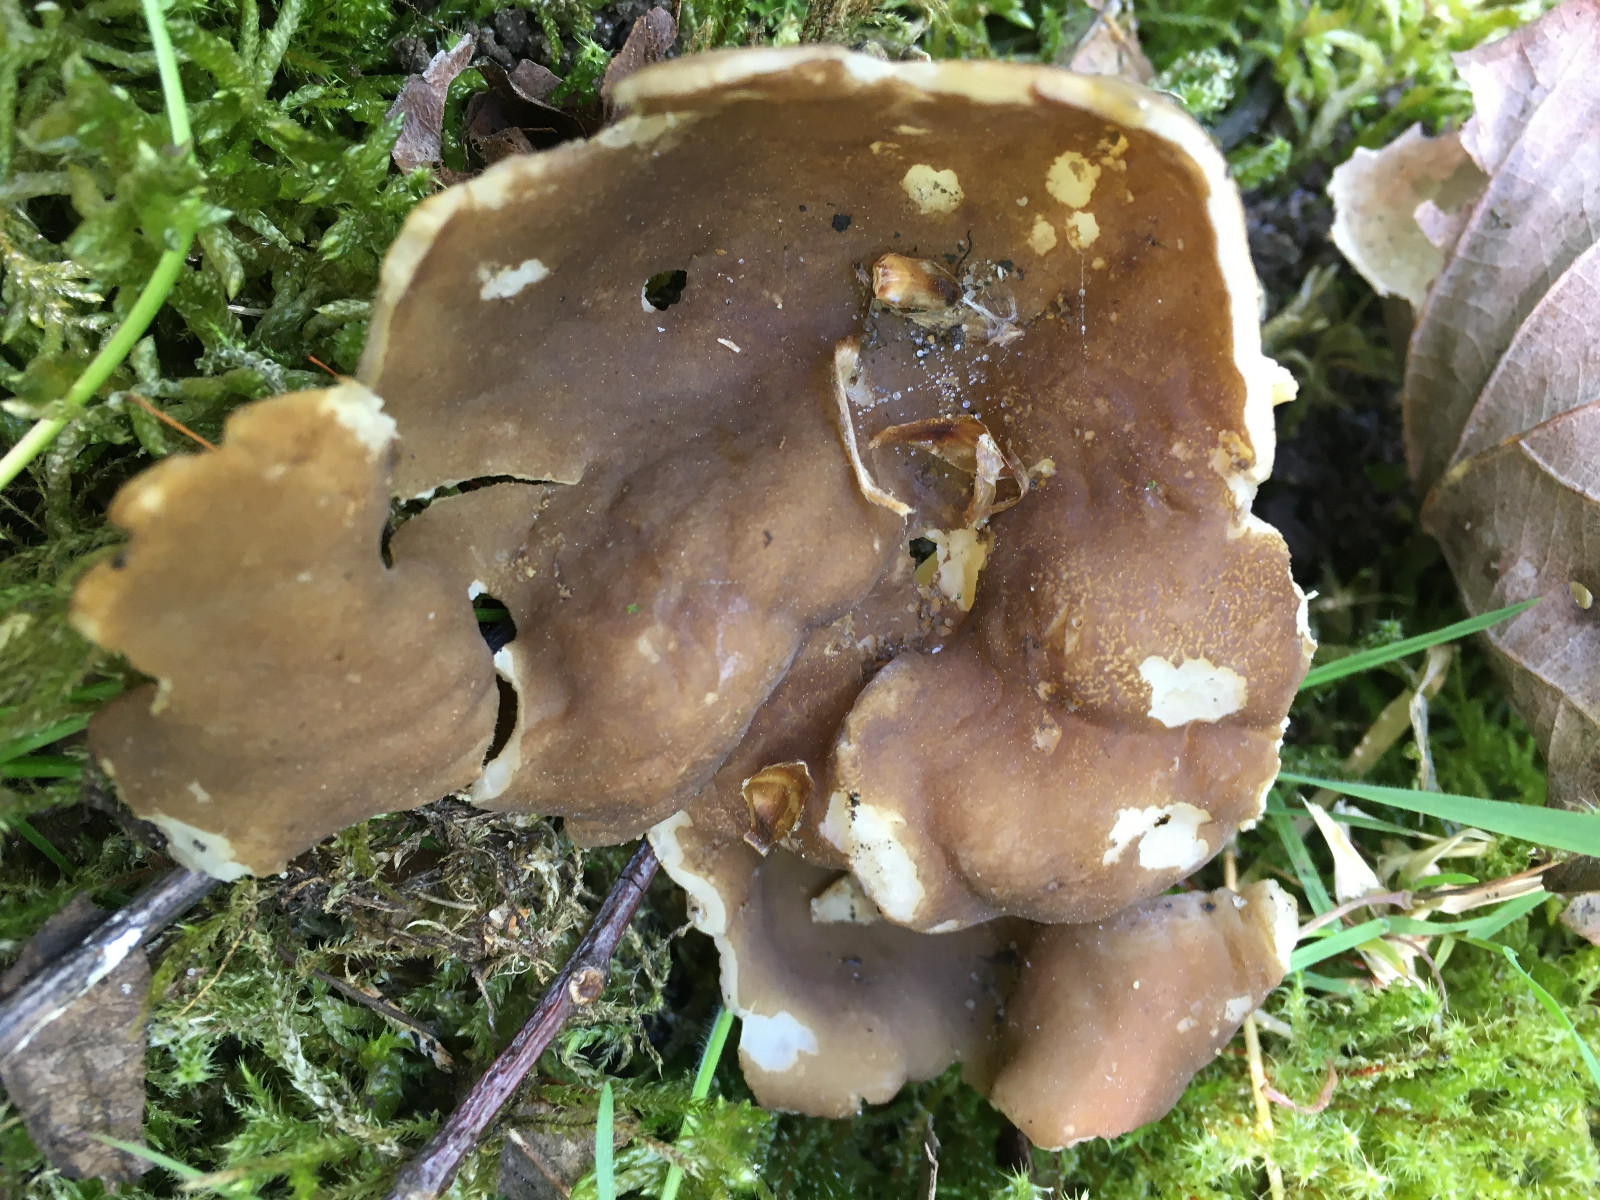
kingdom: Fungi
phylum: Ascomycota
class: Pezizomycetes
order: Pezizales
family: Helvellaceae
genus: Helvella
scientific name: Helvella acetabulum
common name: pokal-foldhat
